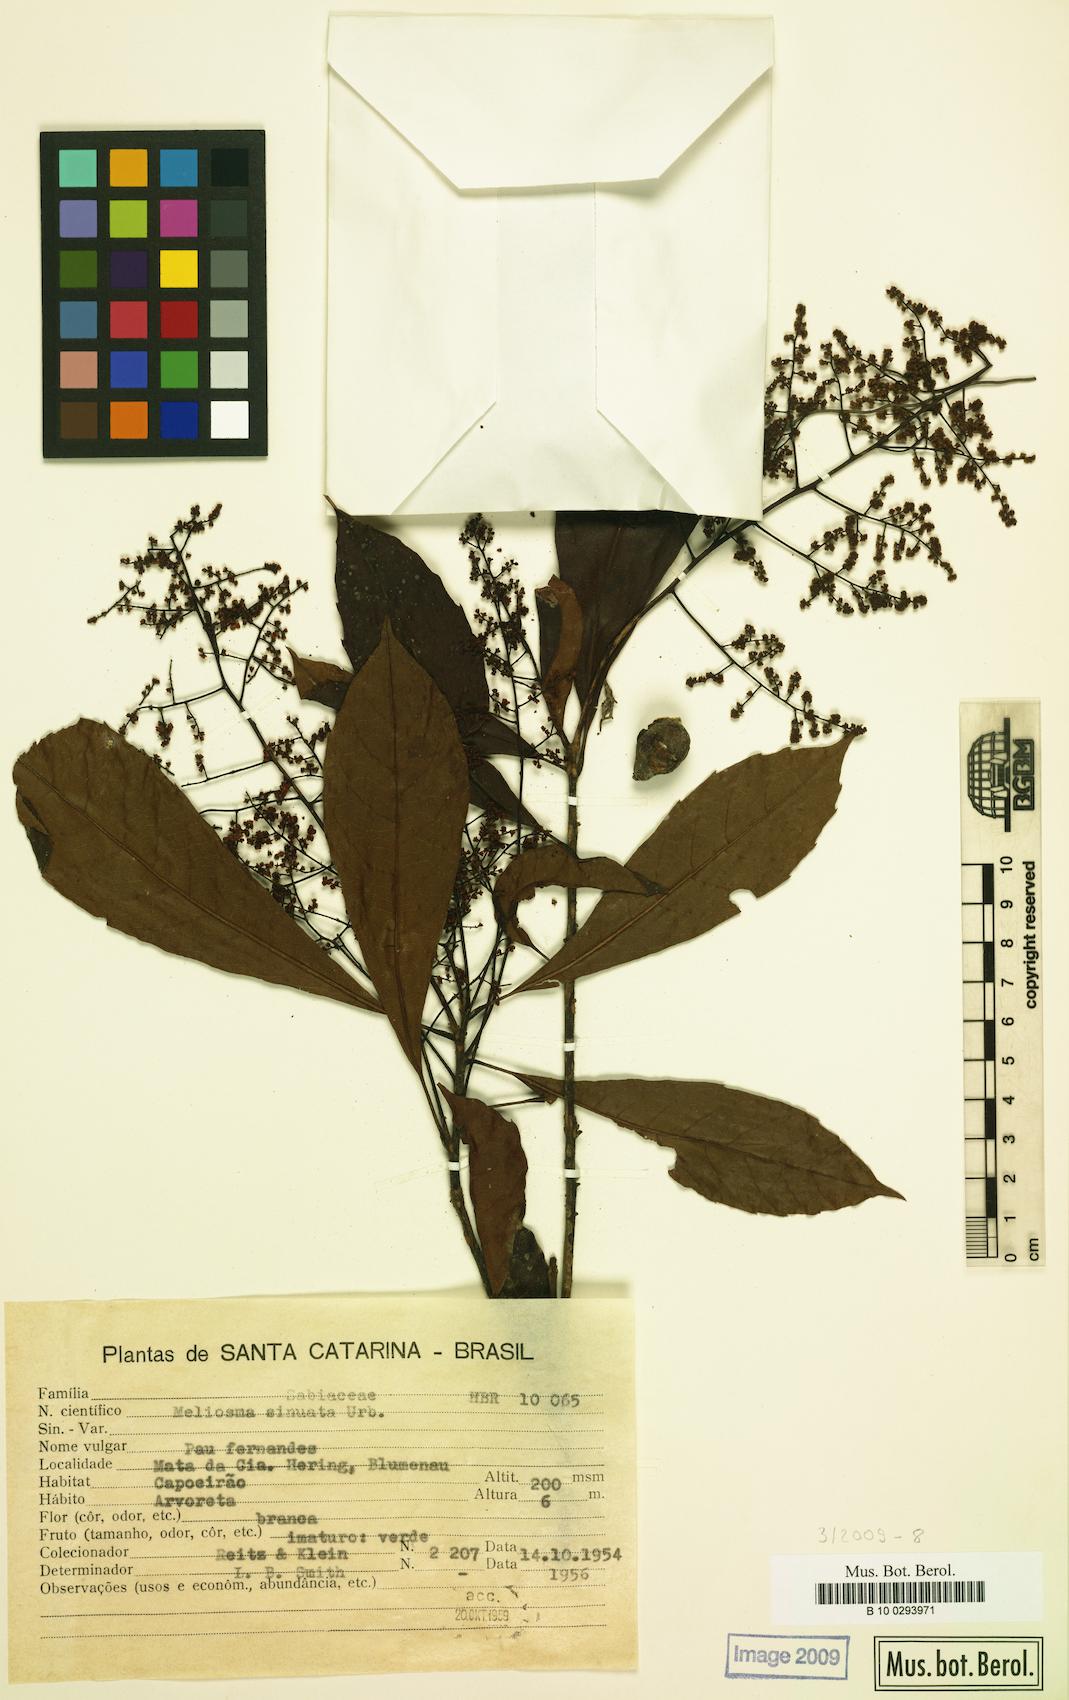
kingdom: Plantae
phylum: Tracheophyta
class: Magnoliopsida
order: Proteales
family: Sabiaceae
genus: Meliosma
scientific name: Meliosma sellowii
